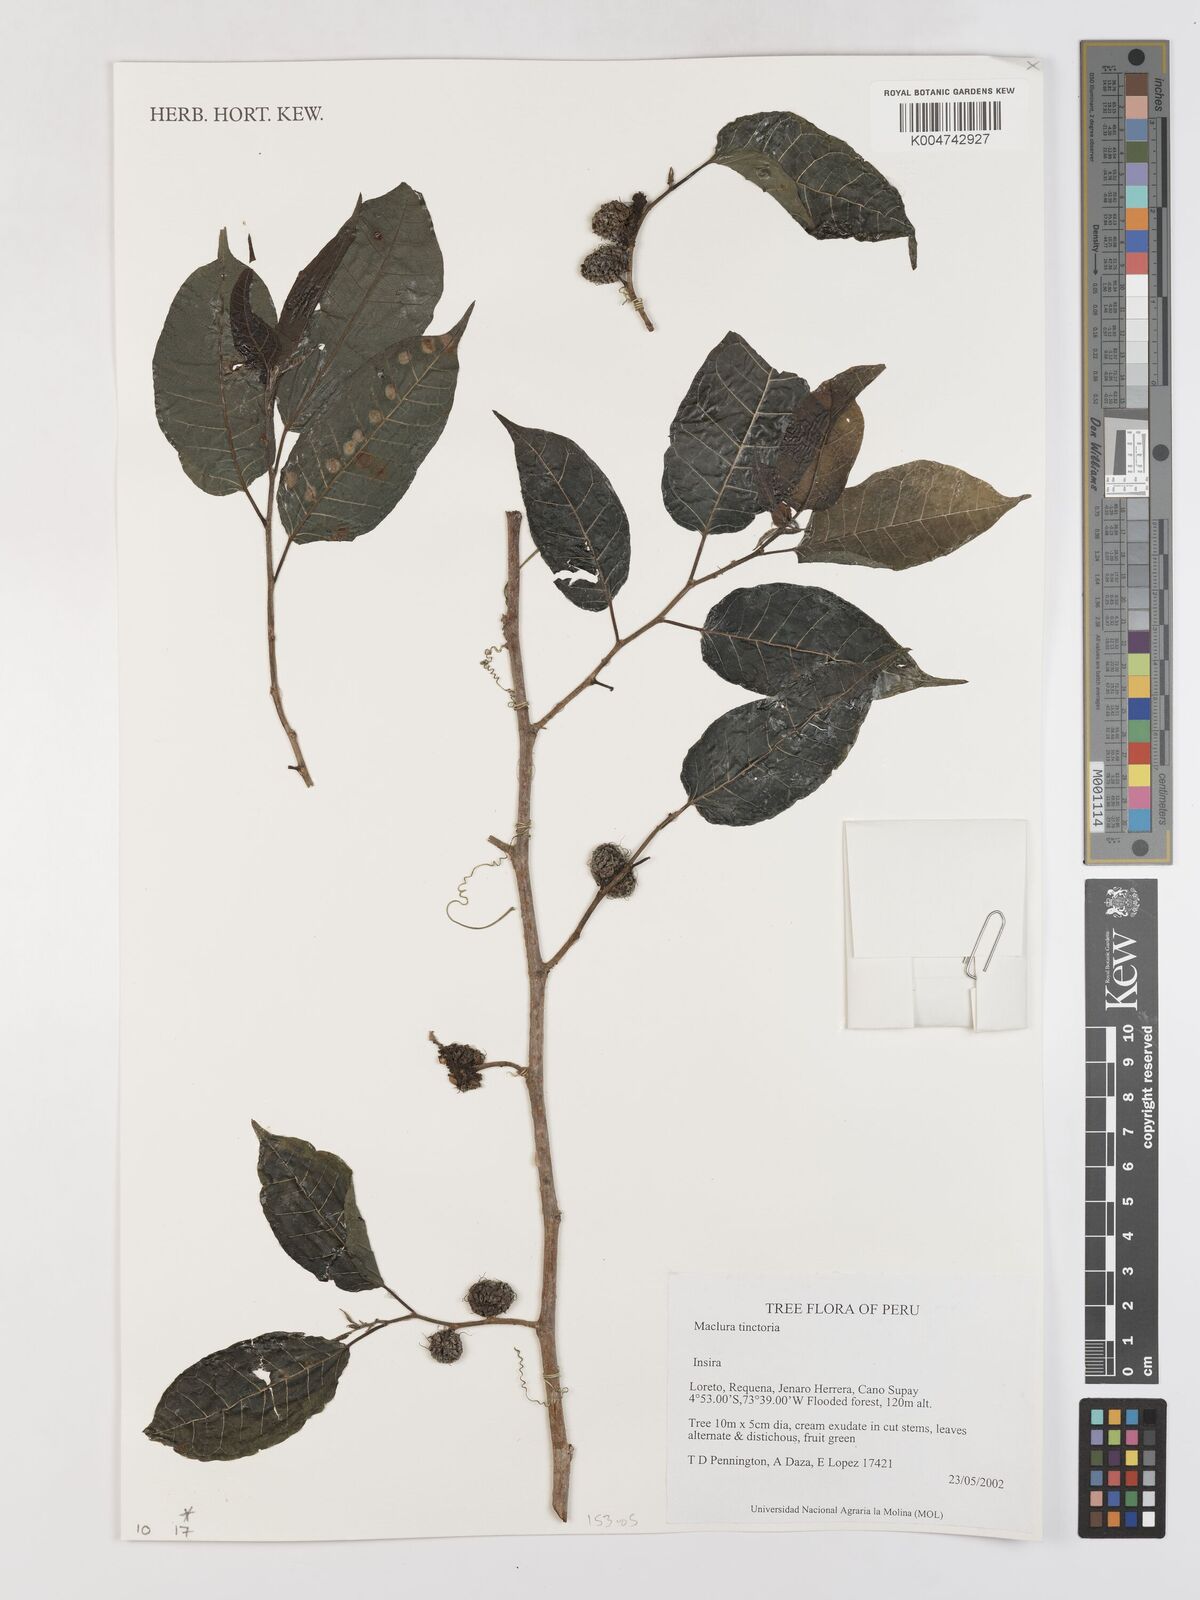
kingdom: Plantae
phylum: Tracheophyta
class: Magnoliopsida
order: Rosales
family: Moraceae
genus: Maclura
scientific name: Maclura tinctoria
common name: Old fustic
